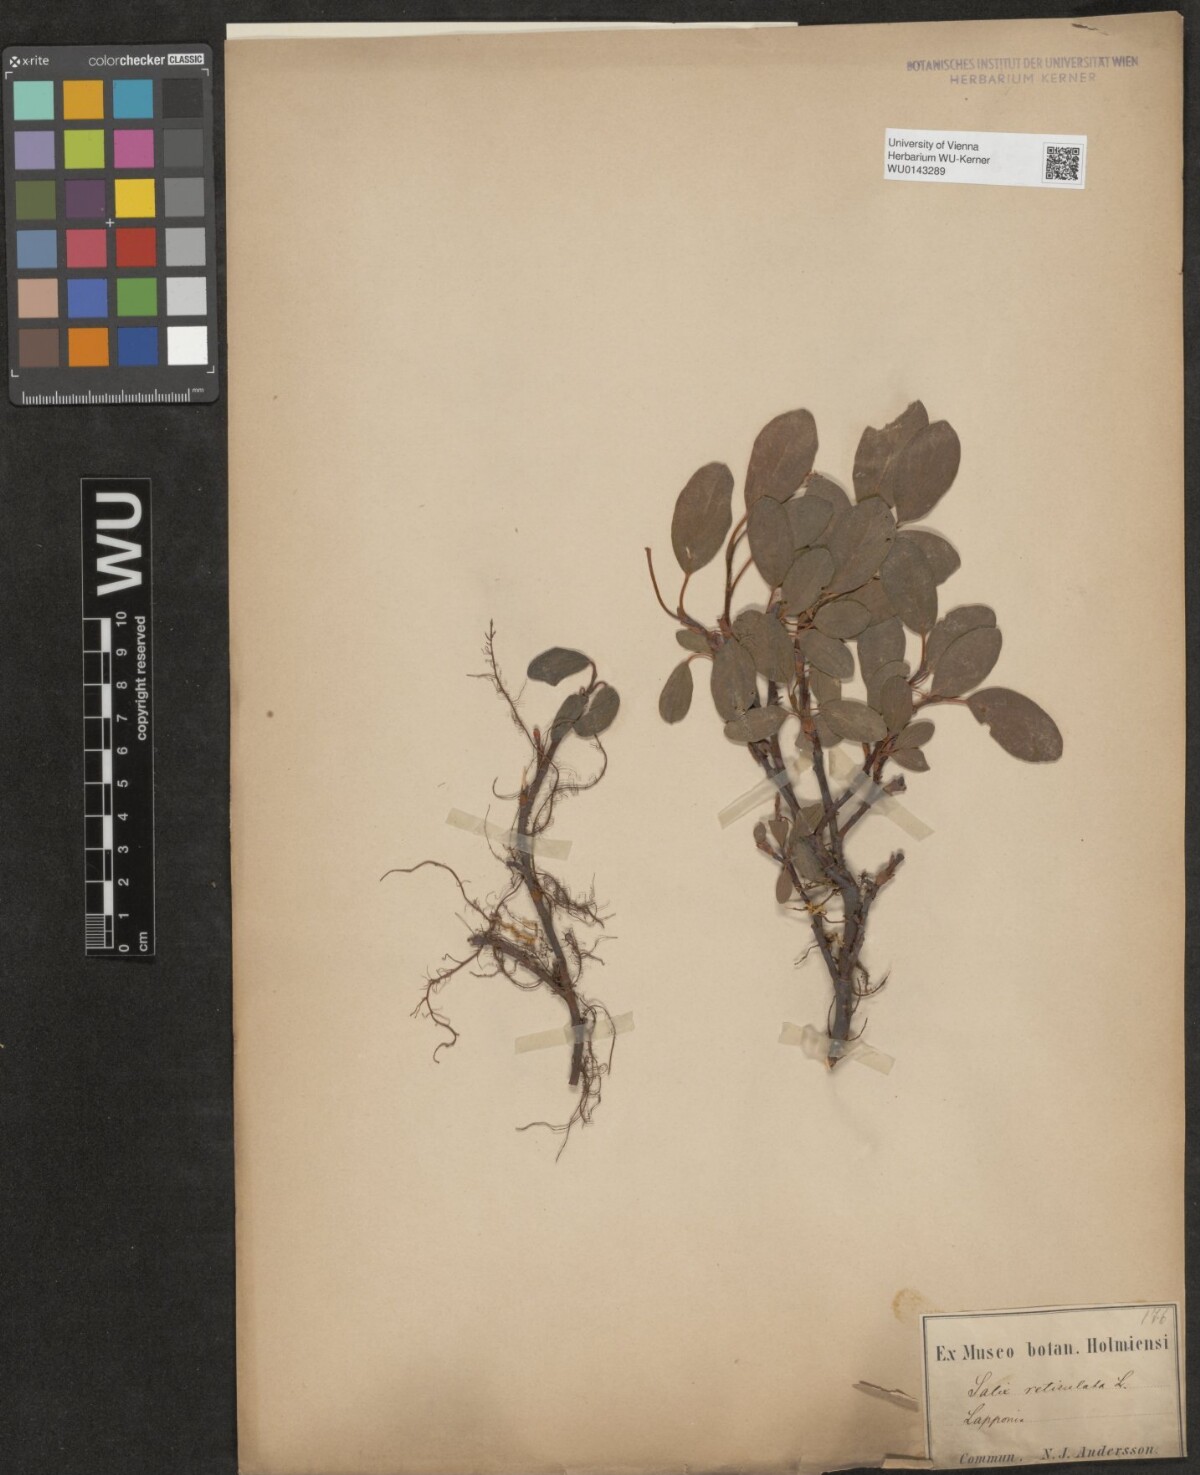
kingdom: Plantae
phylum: Tracheophyta
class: Magnoliopsida
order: Malpighiales
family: Salicaceae
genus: Salix
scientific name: Salix reticulata
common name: Net-leaved willow
